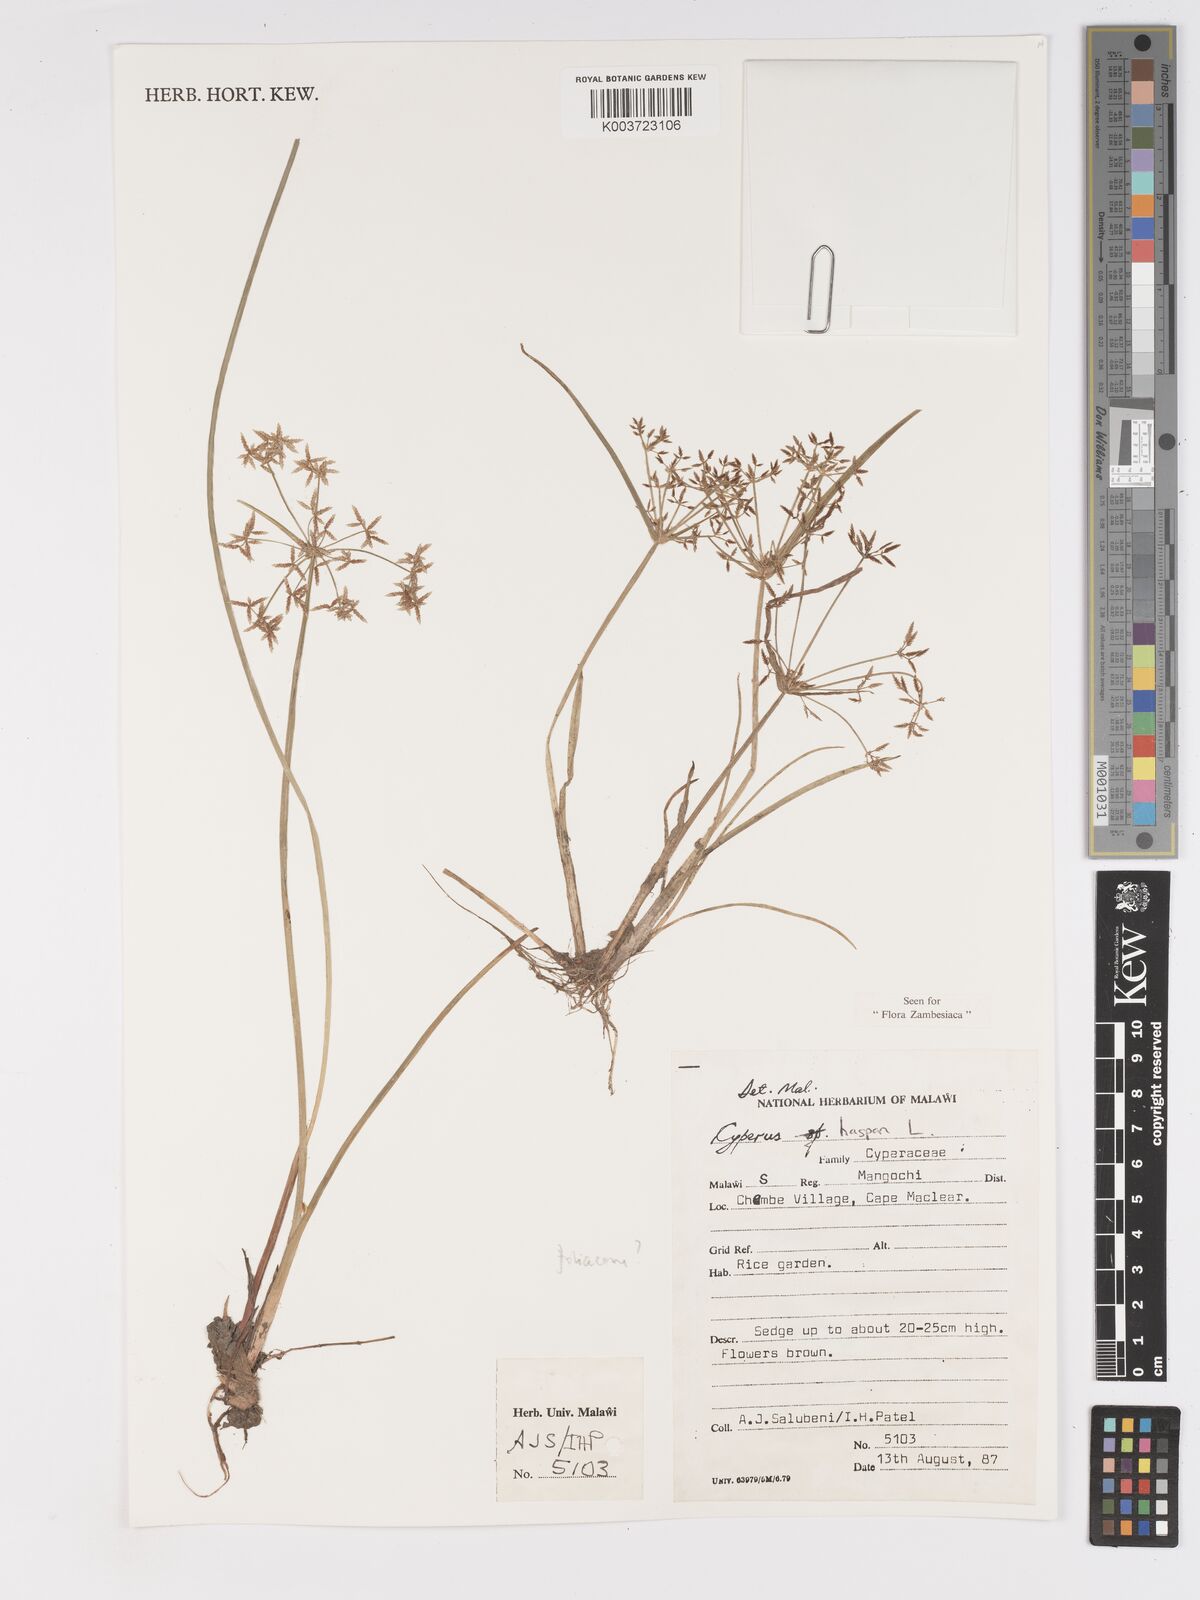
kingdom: Plantae
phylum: Tracheophyta
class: Liliopsida
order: Poales
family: Cyperaceae
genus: Cyperus
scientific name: Cyperus haspan
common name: Haspan flatsedge
